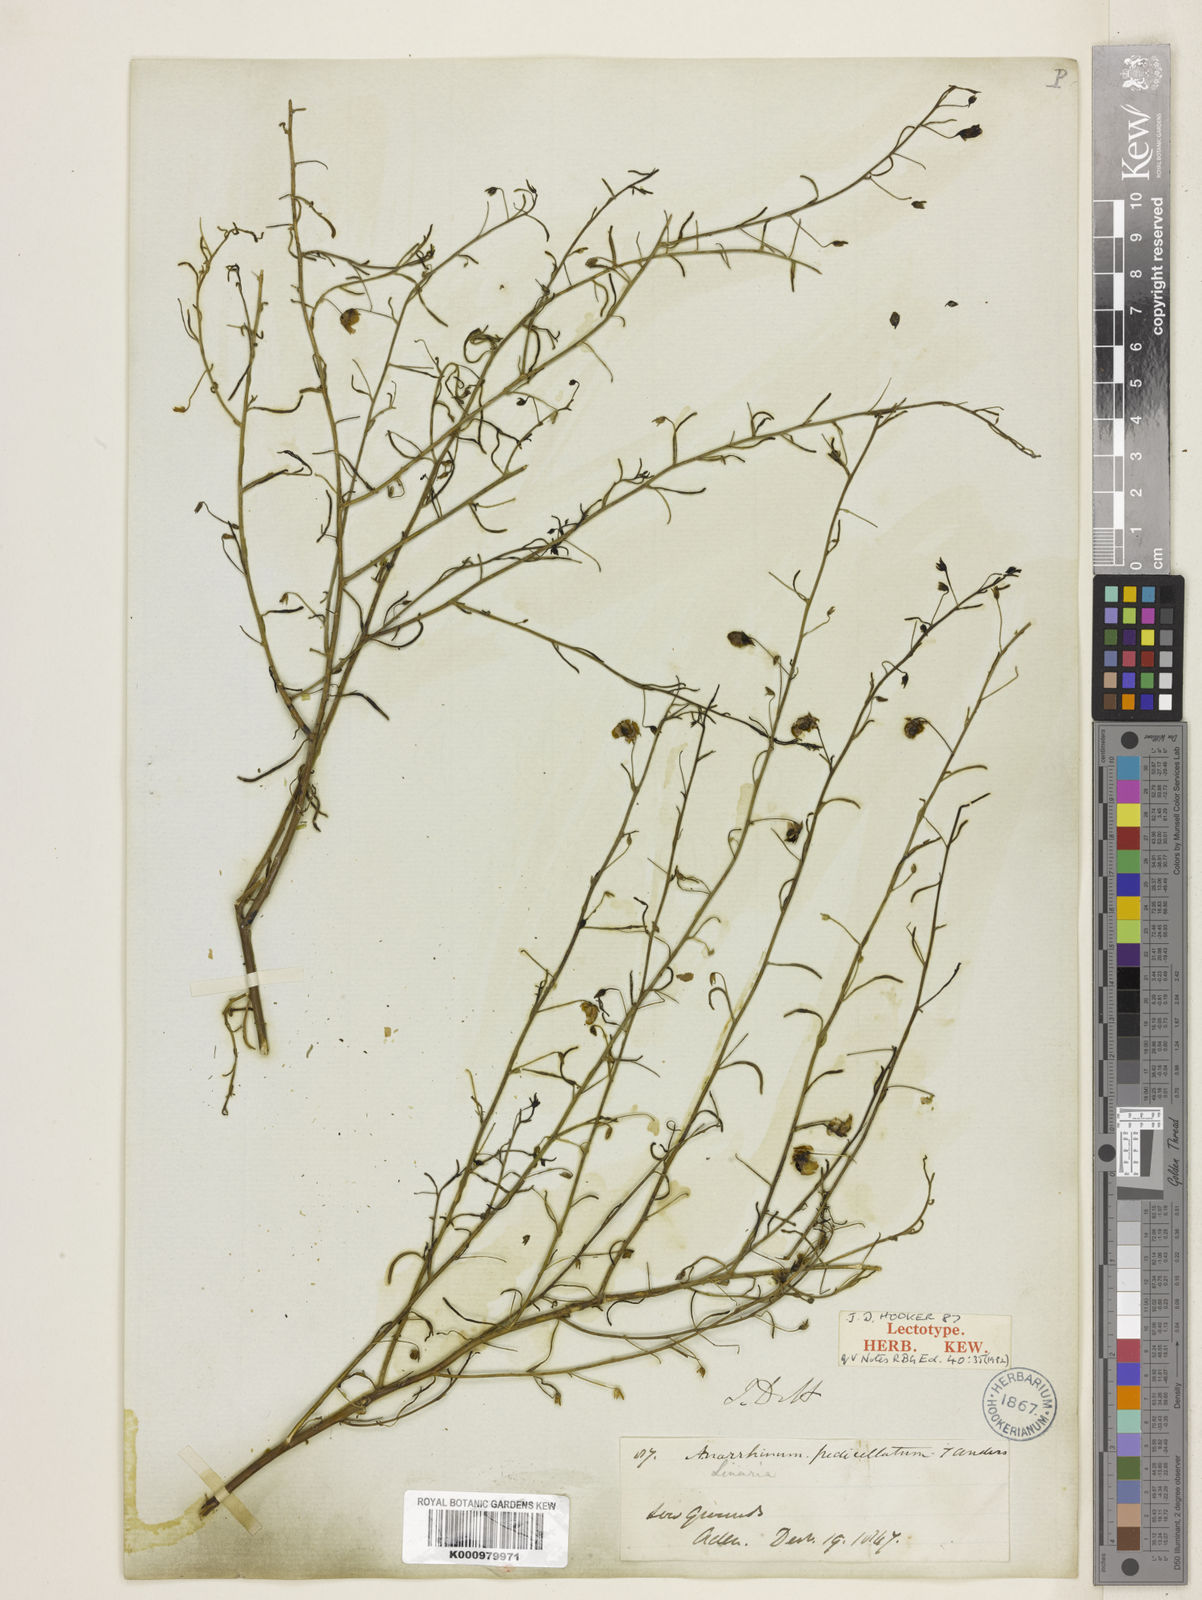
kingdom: Plantae
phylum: Tracheophyta
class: Magnoliopsida
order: Lamiales
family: Plantaginaceae
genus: Schweinfurthia
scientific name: Schweinfurthia pedicellata
